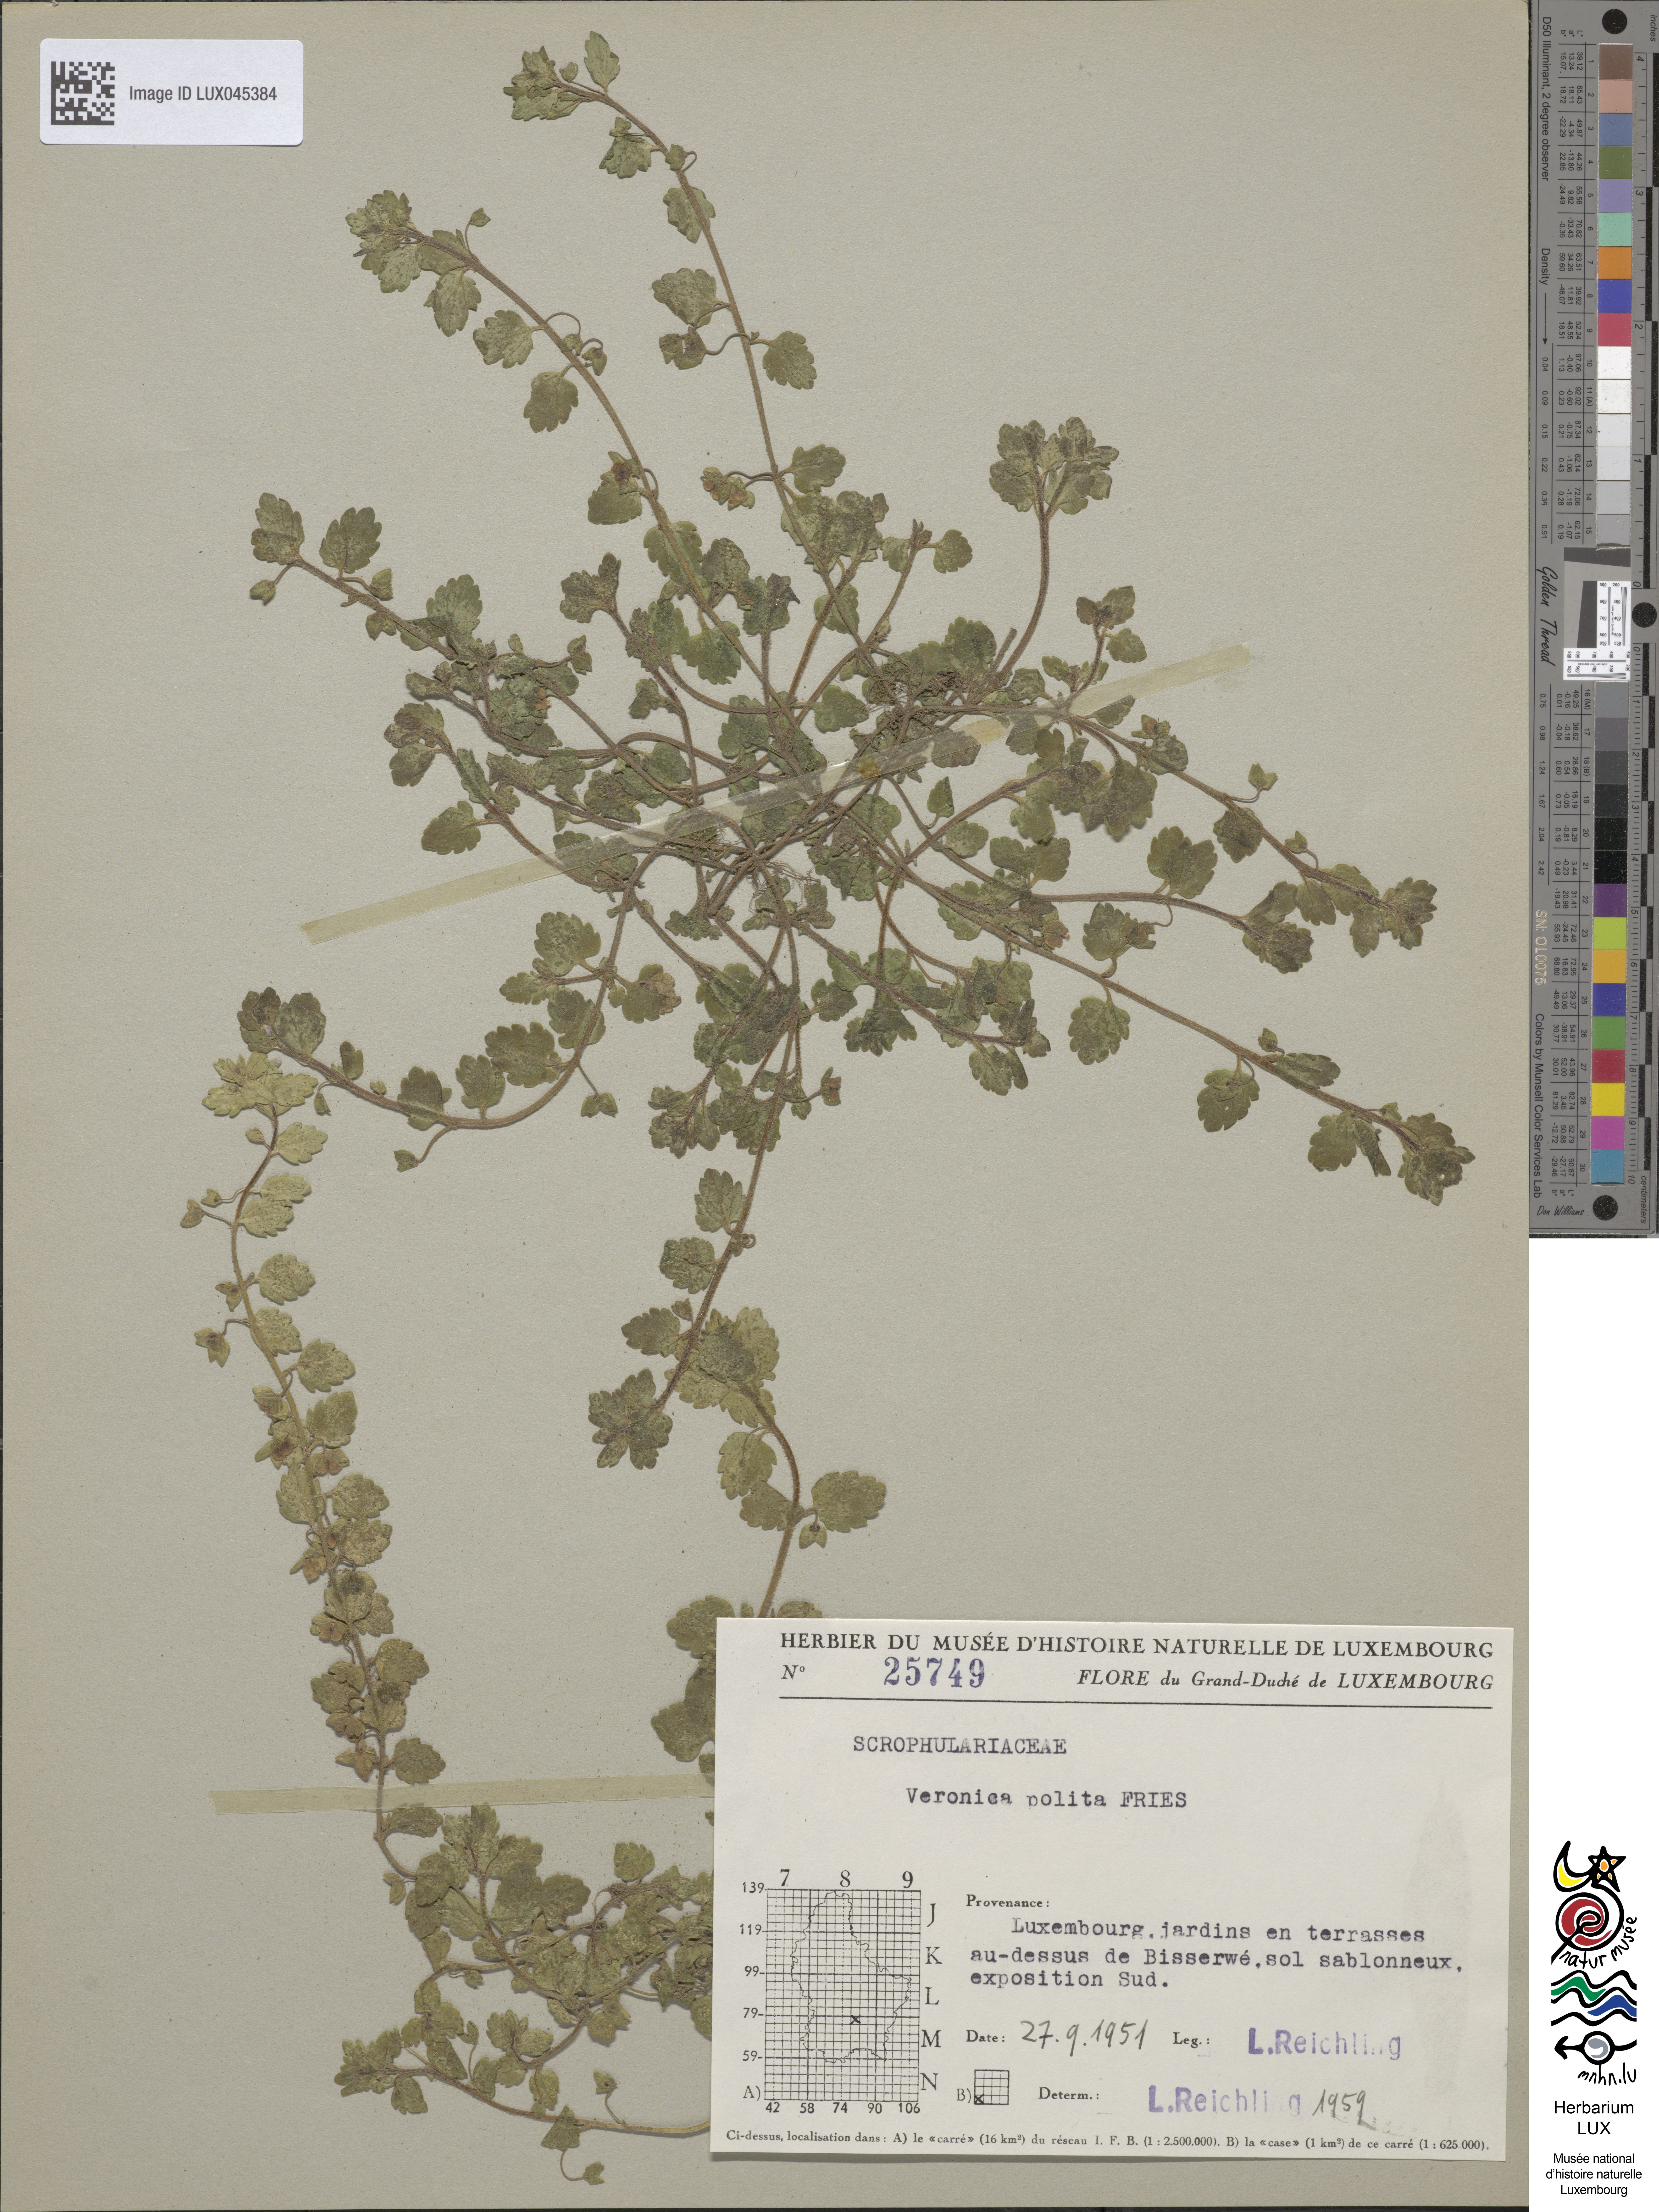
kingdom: Plantae
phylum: Tracheophyta
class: Magnoliopsida
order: Lamiales
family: Plantaginaceae
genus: Veronica
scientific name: Veronica polita
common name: Grey field-speedwell
